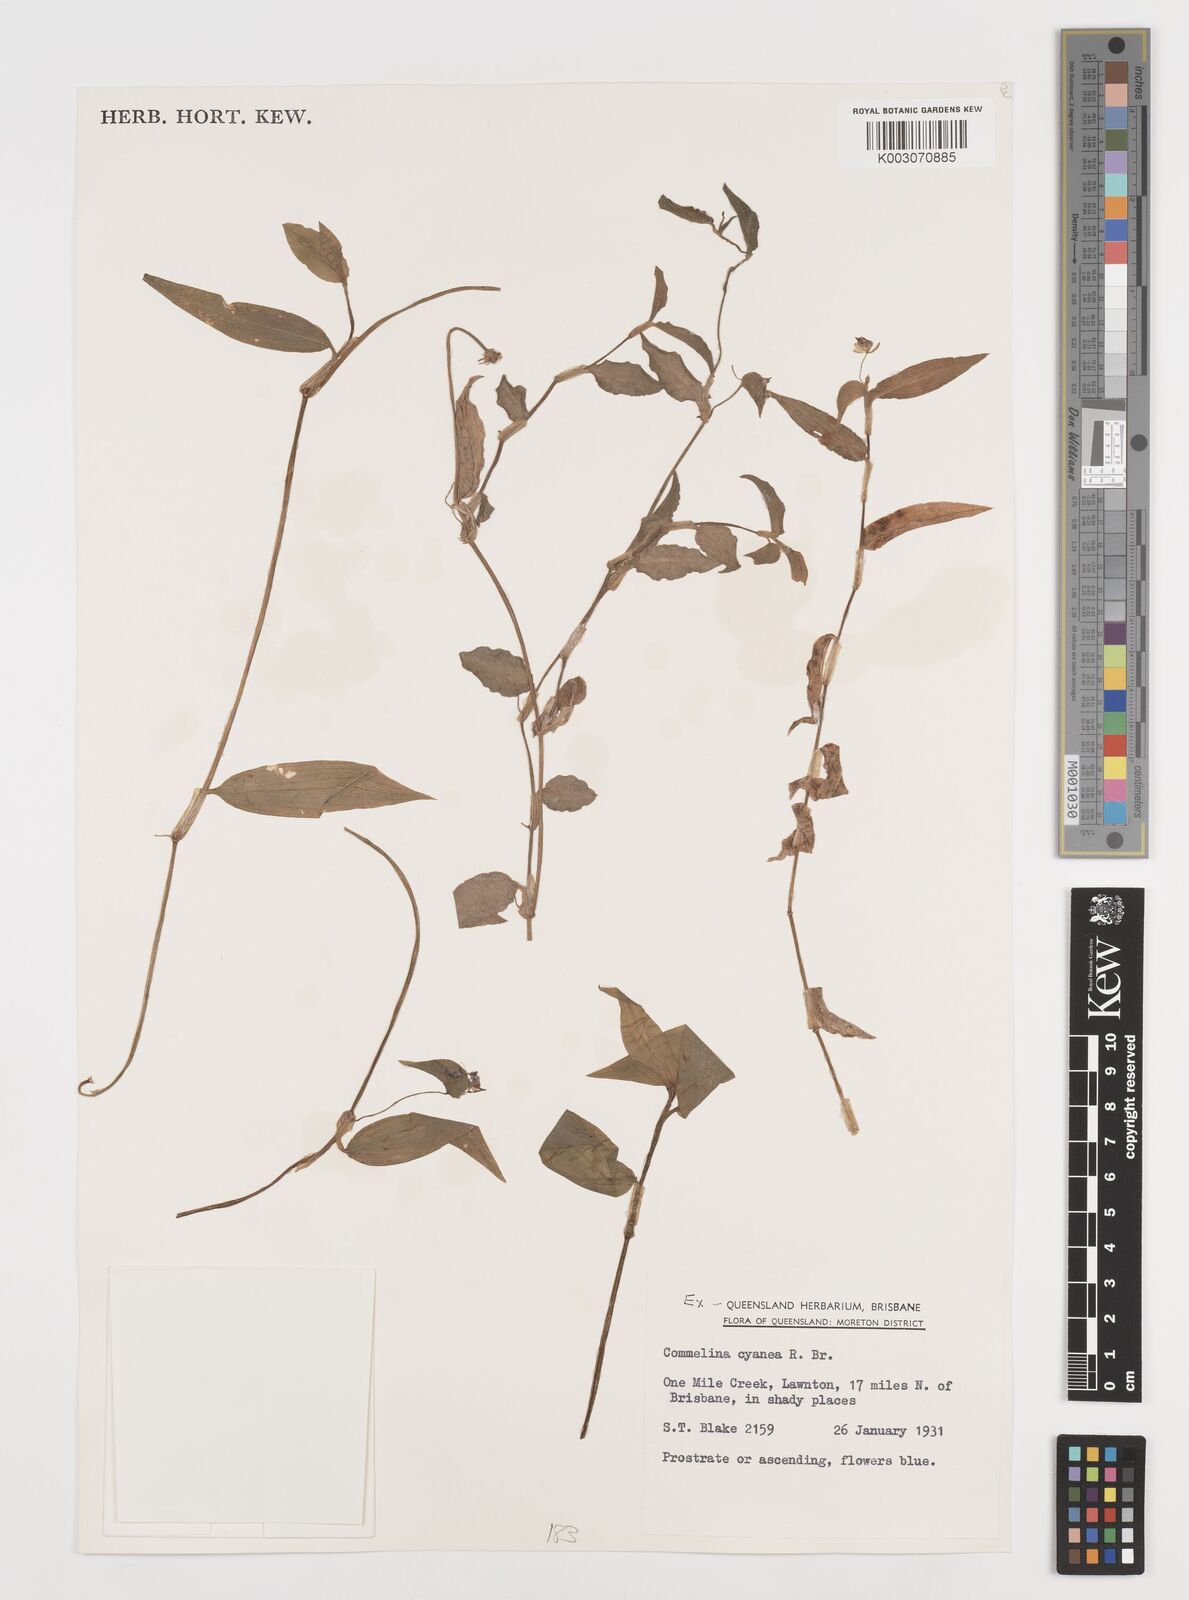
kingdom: Plantae
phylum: Tracheophyta
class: Liliopsida
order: Commelinales
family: Commelinaceae
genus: Commelina
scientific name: Commelina cyanea
